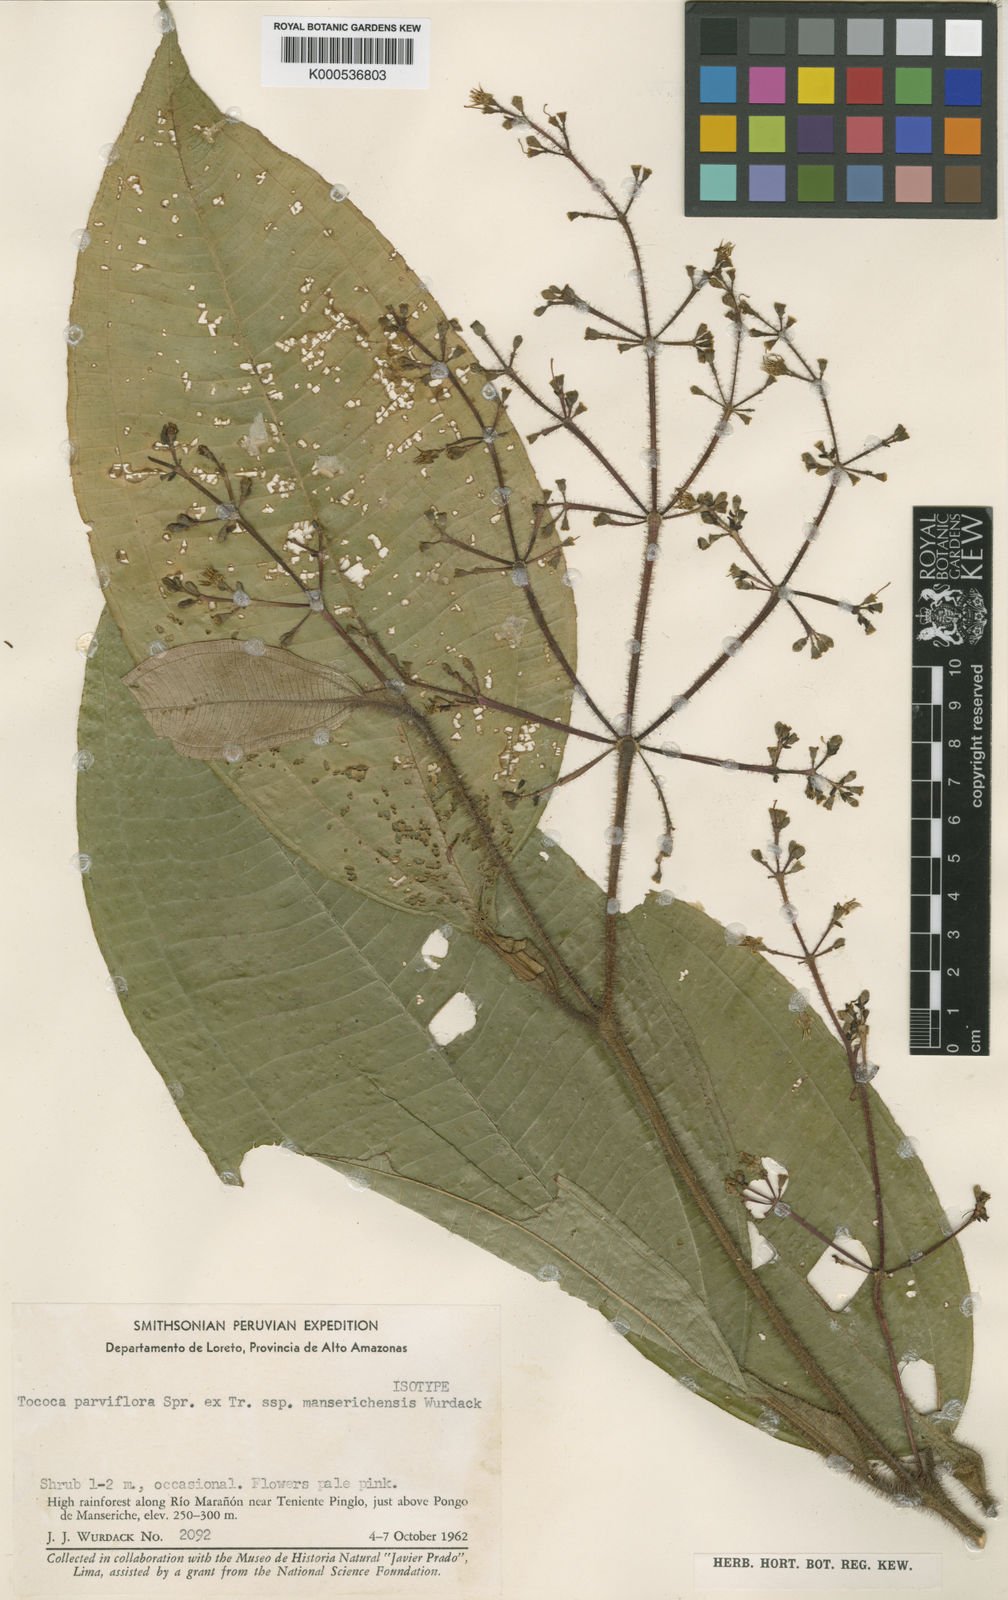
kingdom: Plantae
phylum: Tracheophyta
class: Magnoliopsida
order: Myrtales
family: Melastomataceae
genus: Miconia
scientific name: Miconia manserichensis
